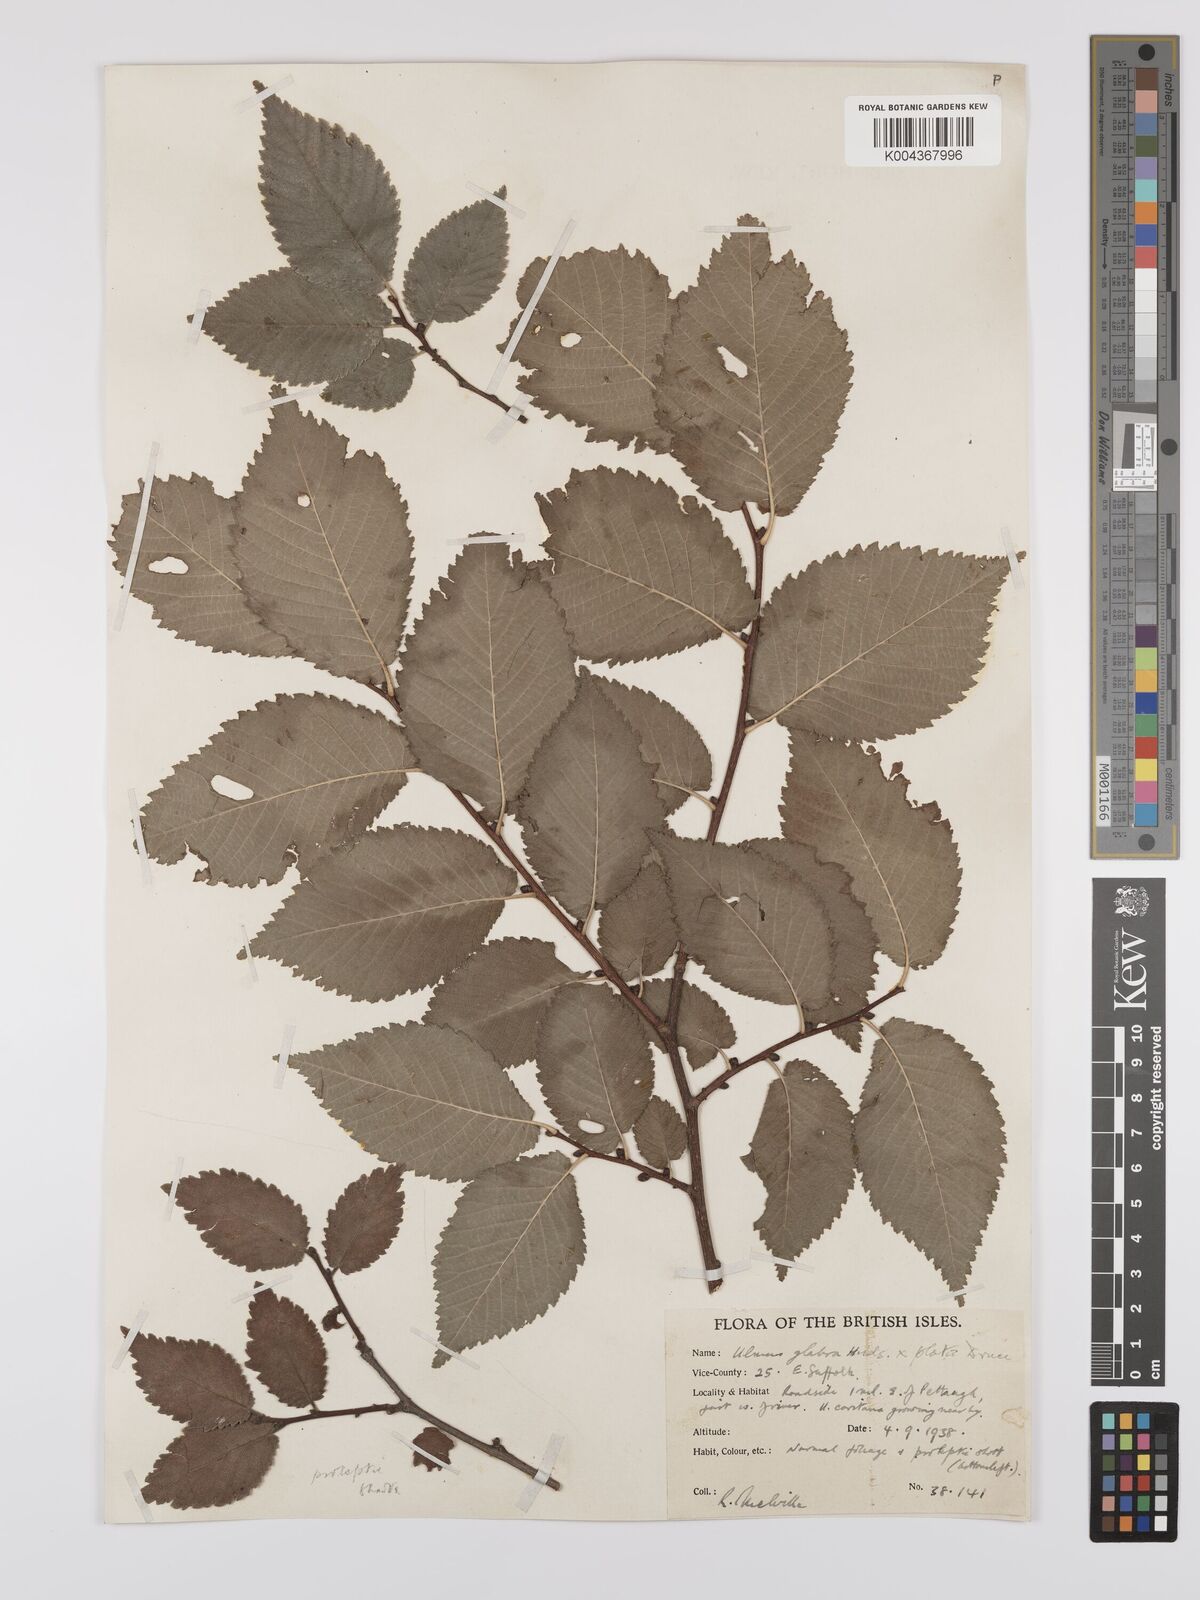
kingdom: Plantae
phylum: Tracheophyta
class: Magnoliopsida
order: Rosales
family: Ulmaceae
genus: Ulmus
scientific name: Ulmus
